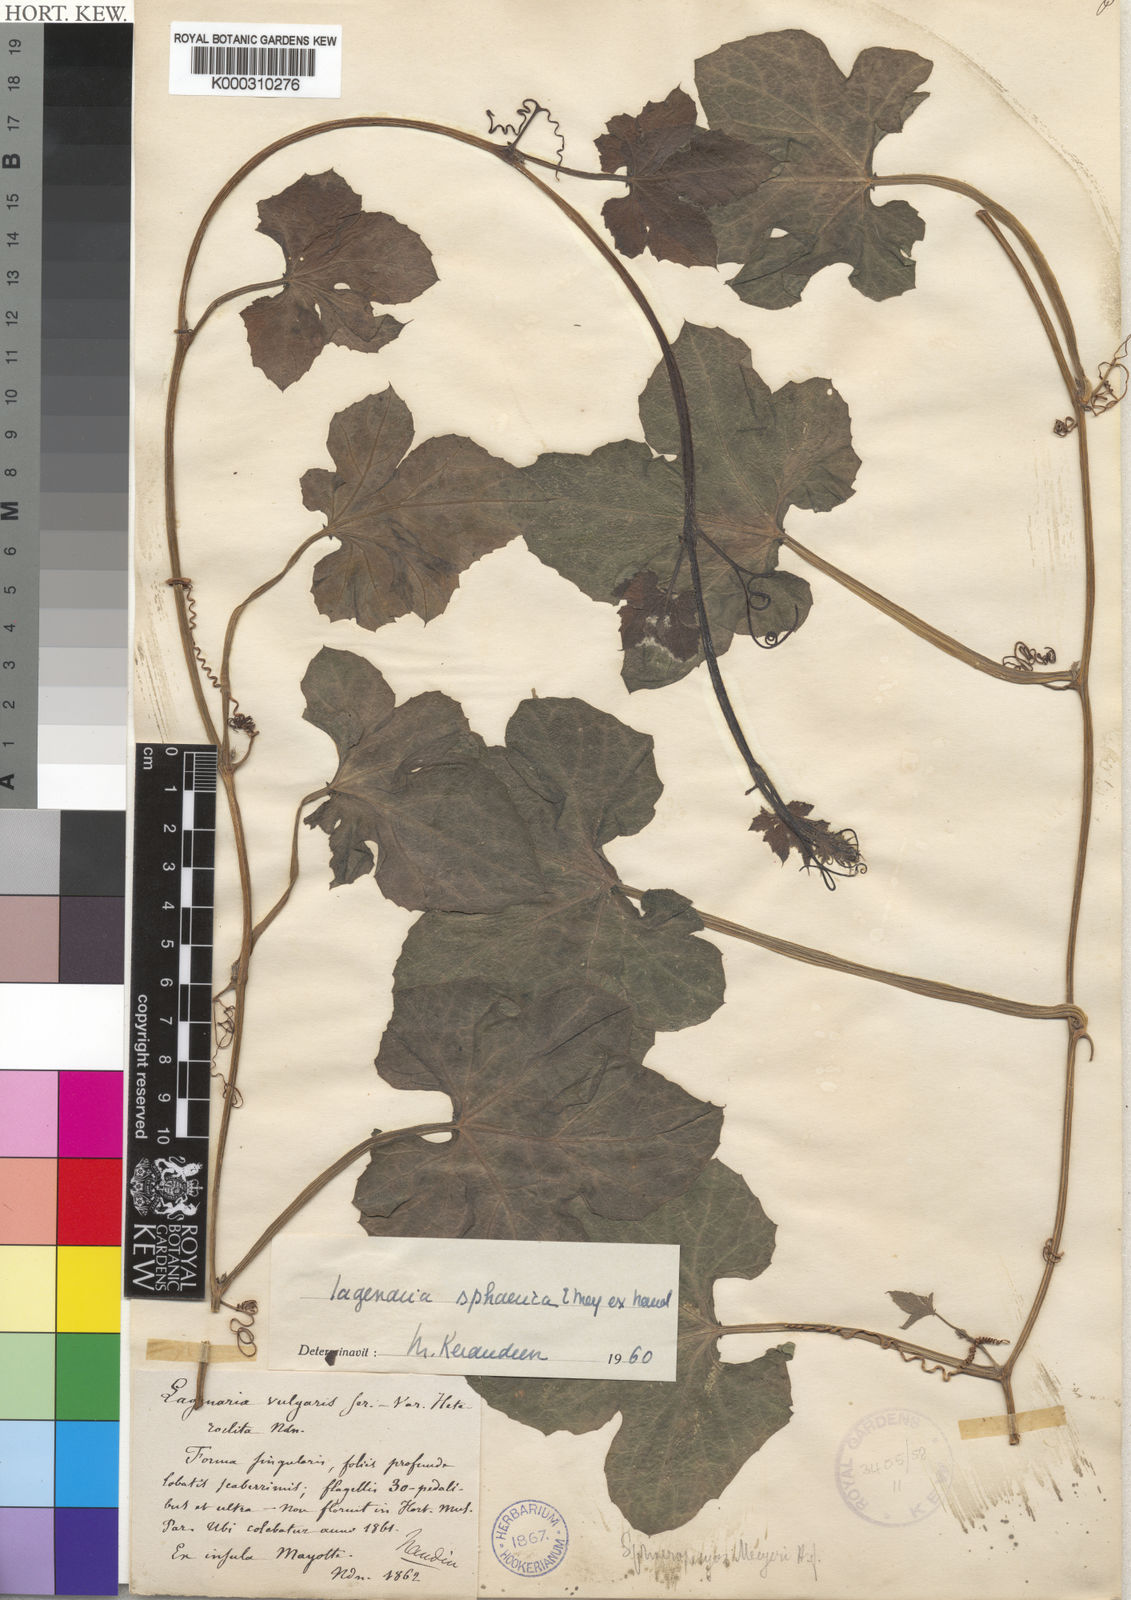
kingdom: Plantae
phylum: Tracheophyta
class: Magnoliopsida
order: Cucurbitales
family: Cucurbitaceae
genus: Lagenaria
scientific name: Lagenaria sphaerica
